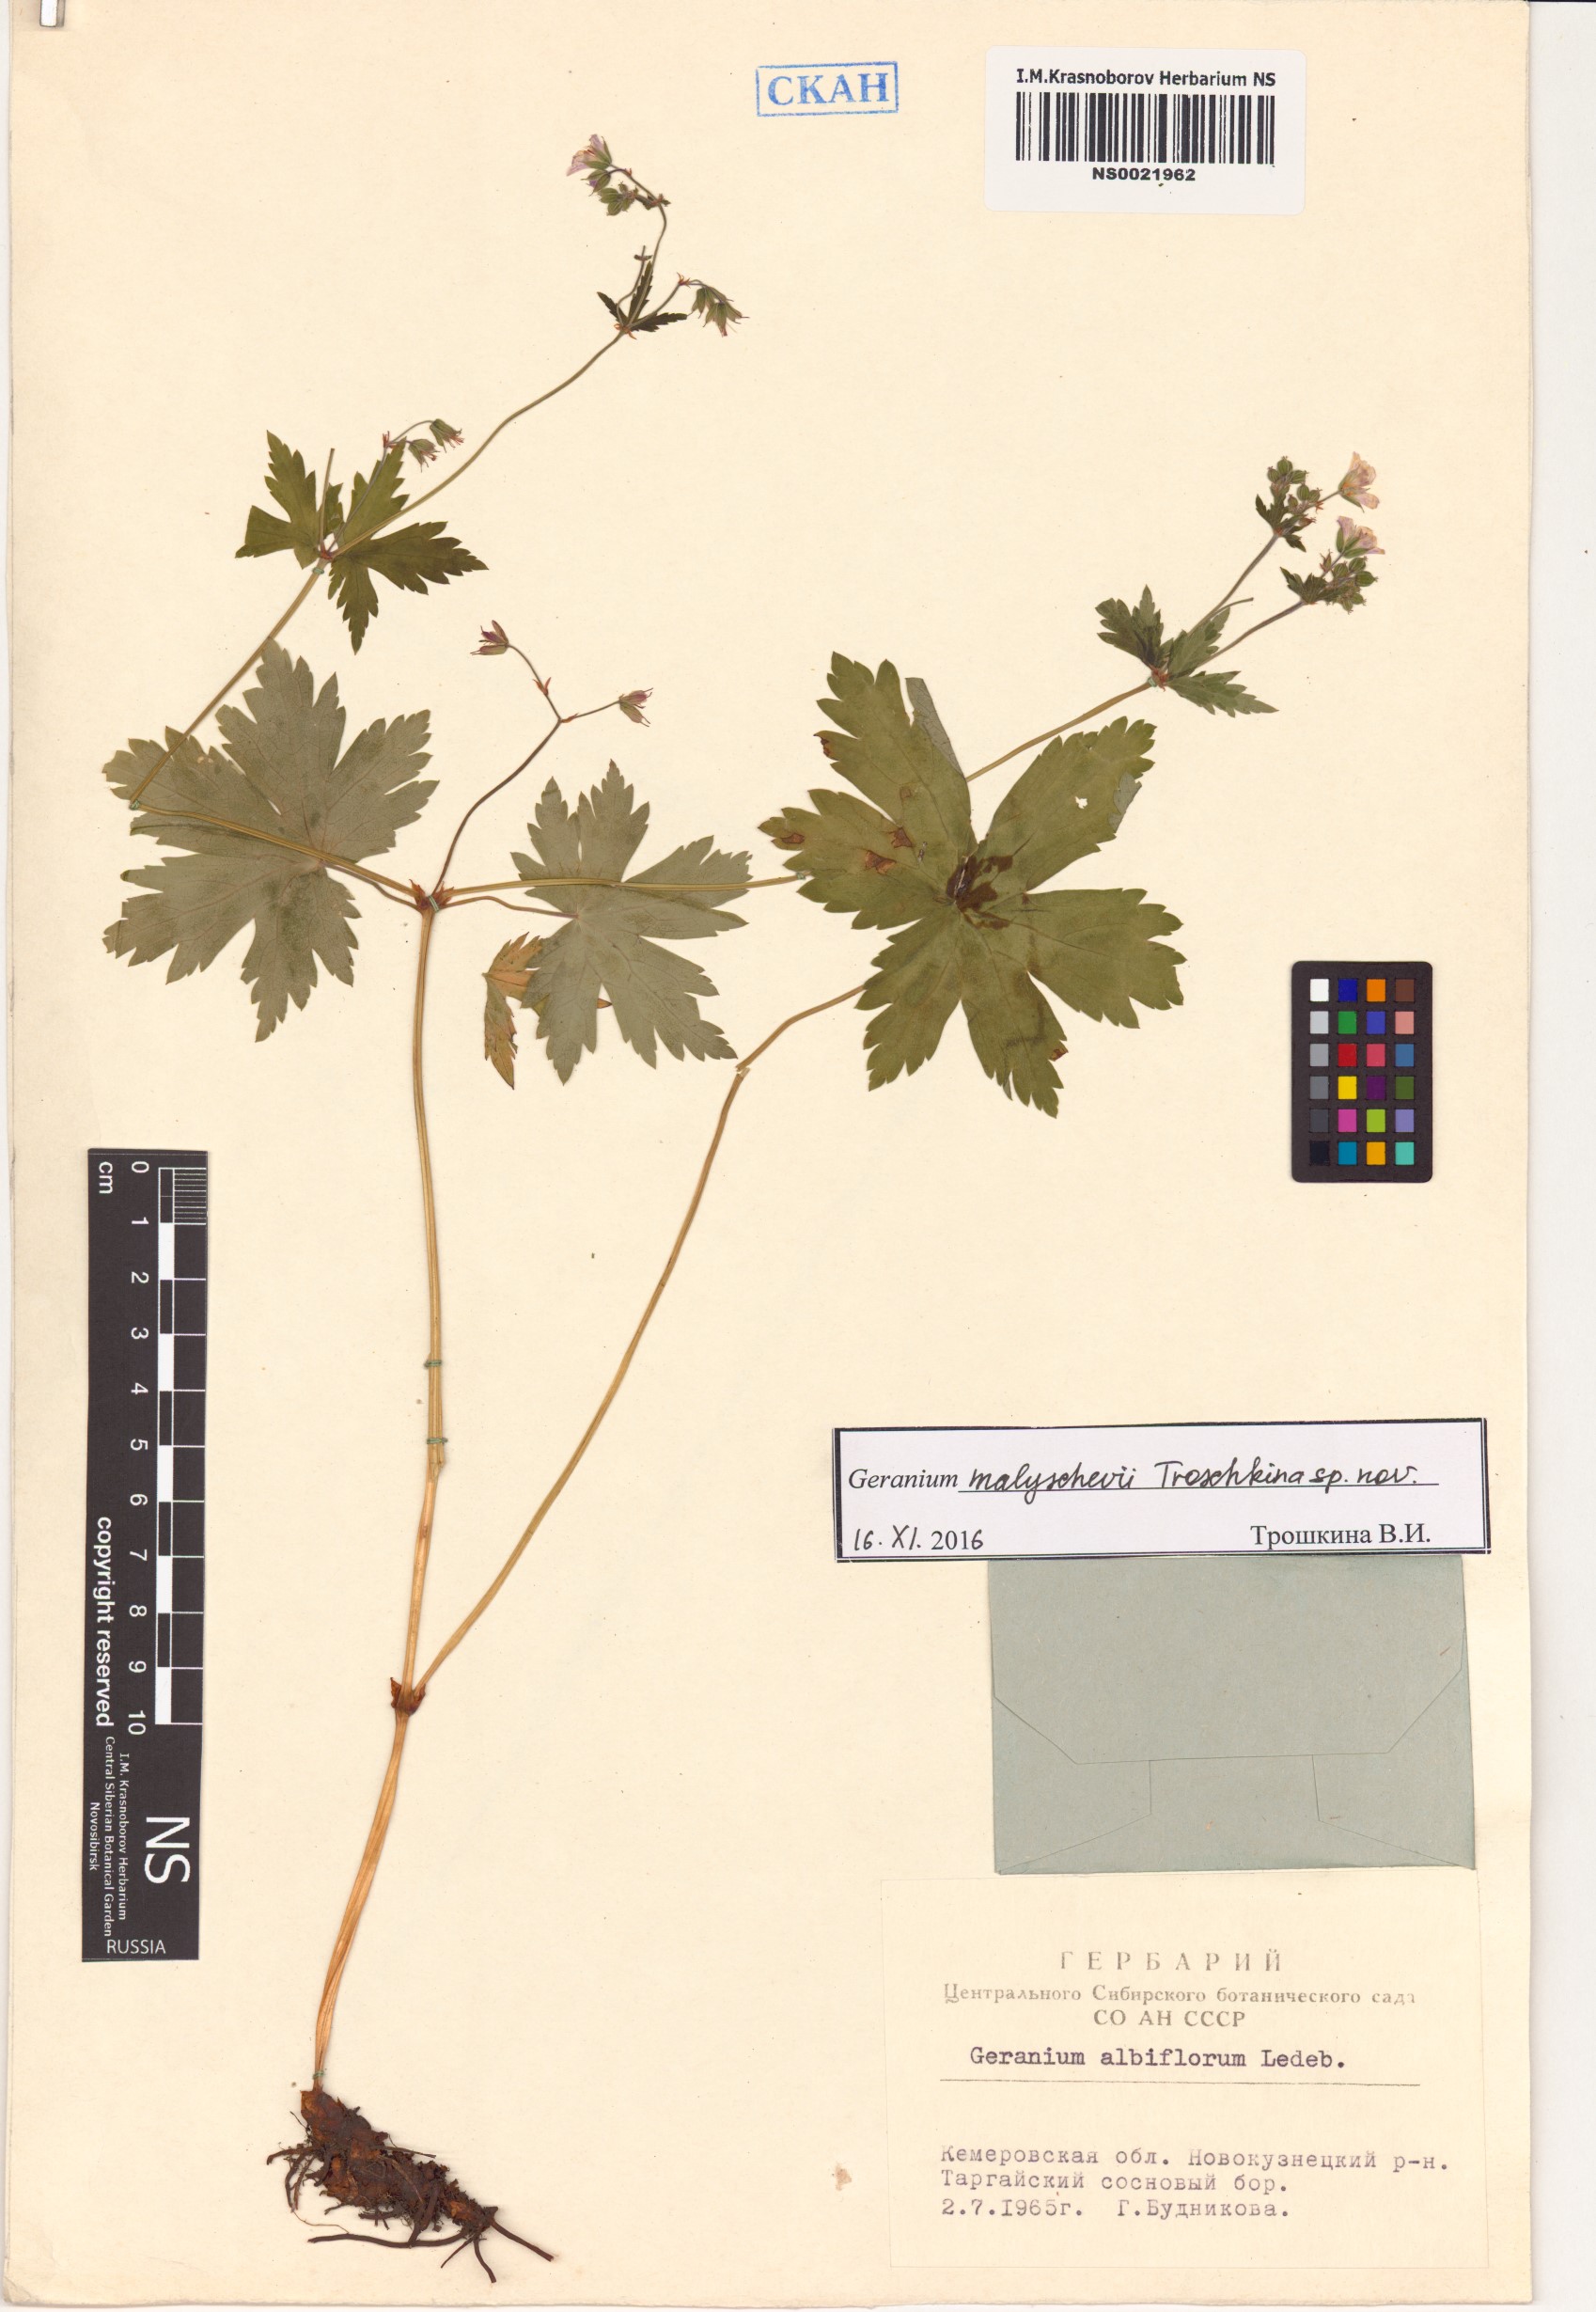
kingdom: Plantae
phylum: Tracheophyta
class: Magnoliopsida
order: Geraniales
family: Geraniaceae
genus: Geranium
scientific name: Geranium malyschevii
